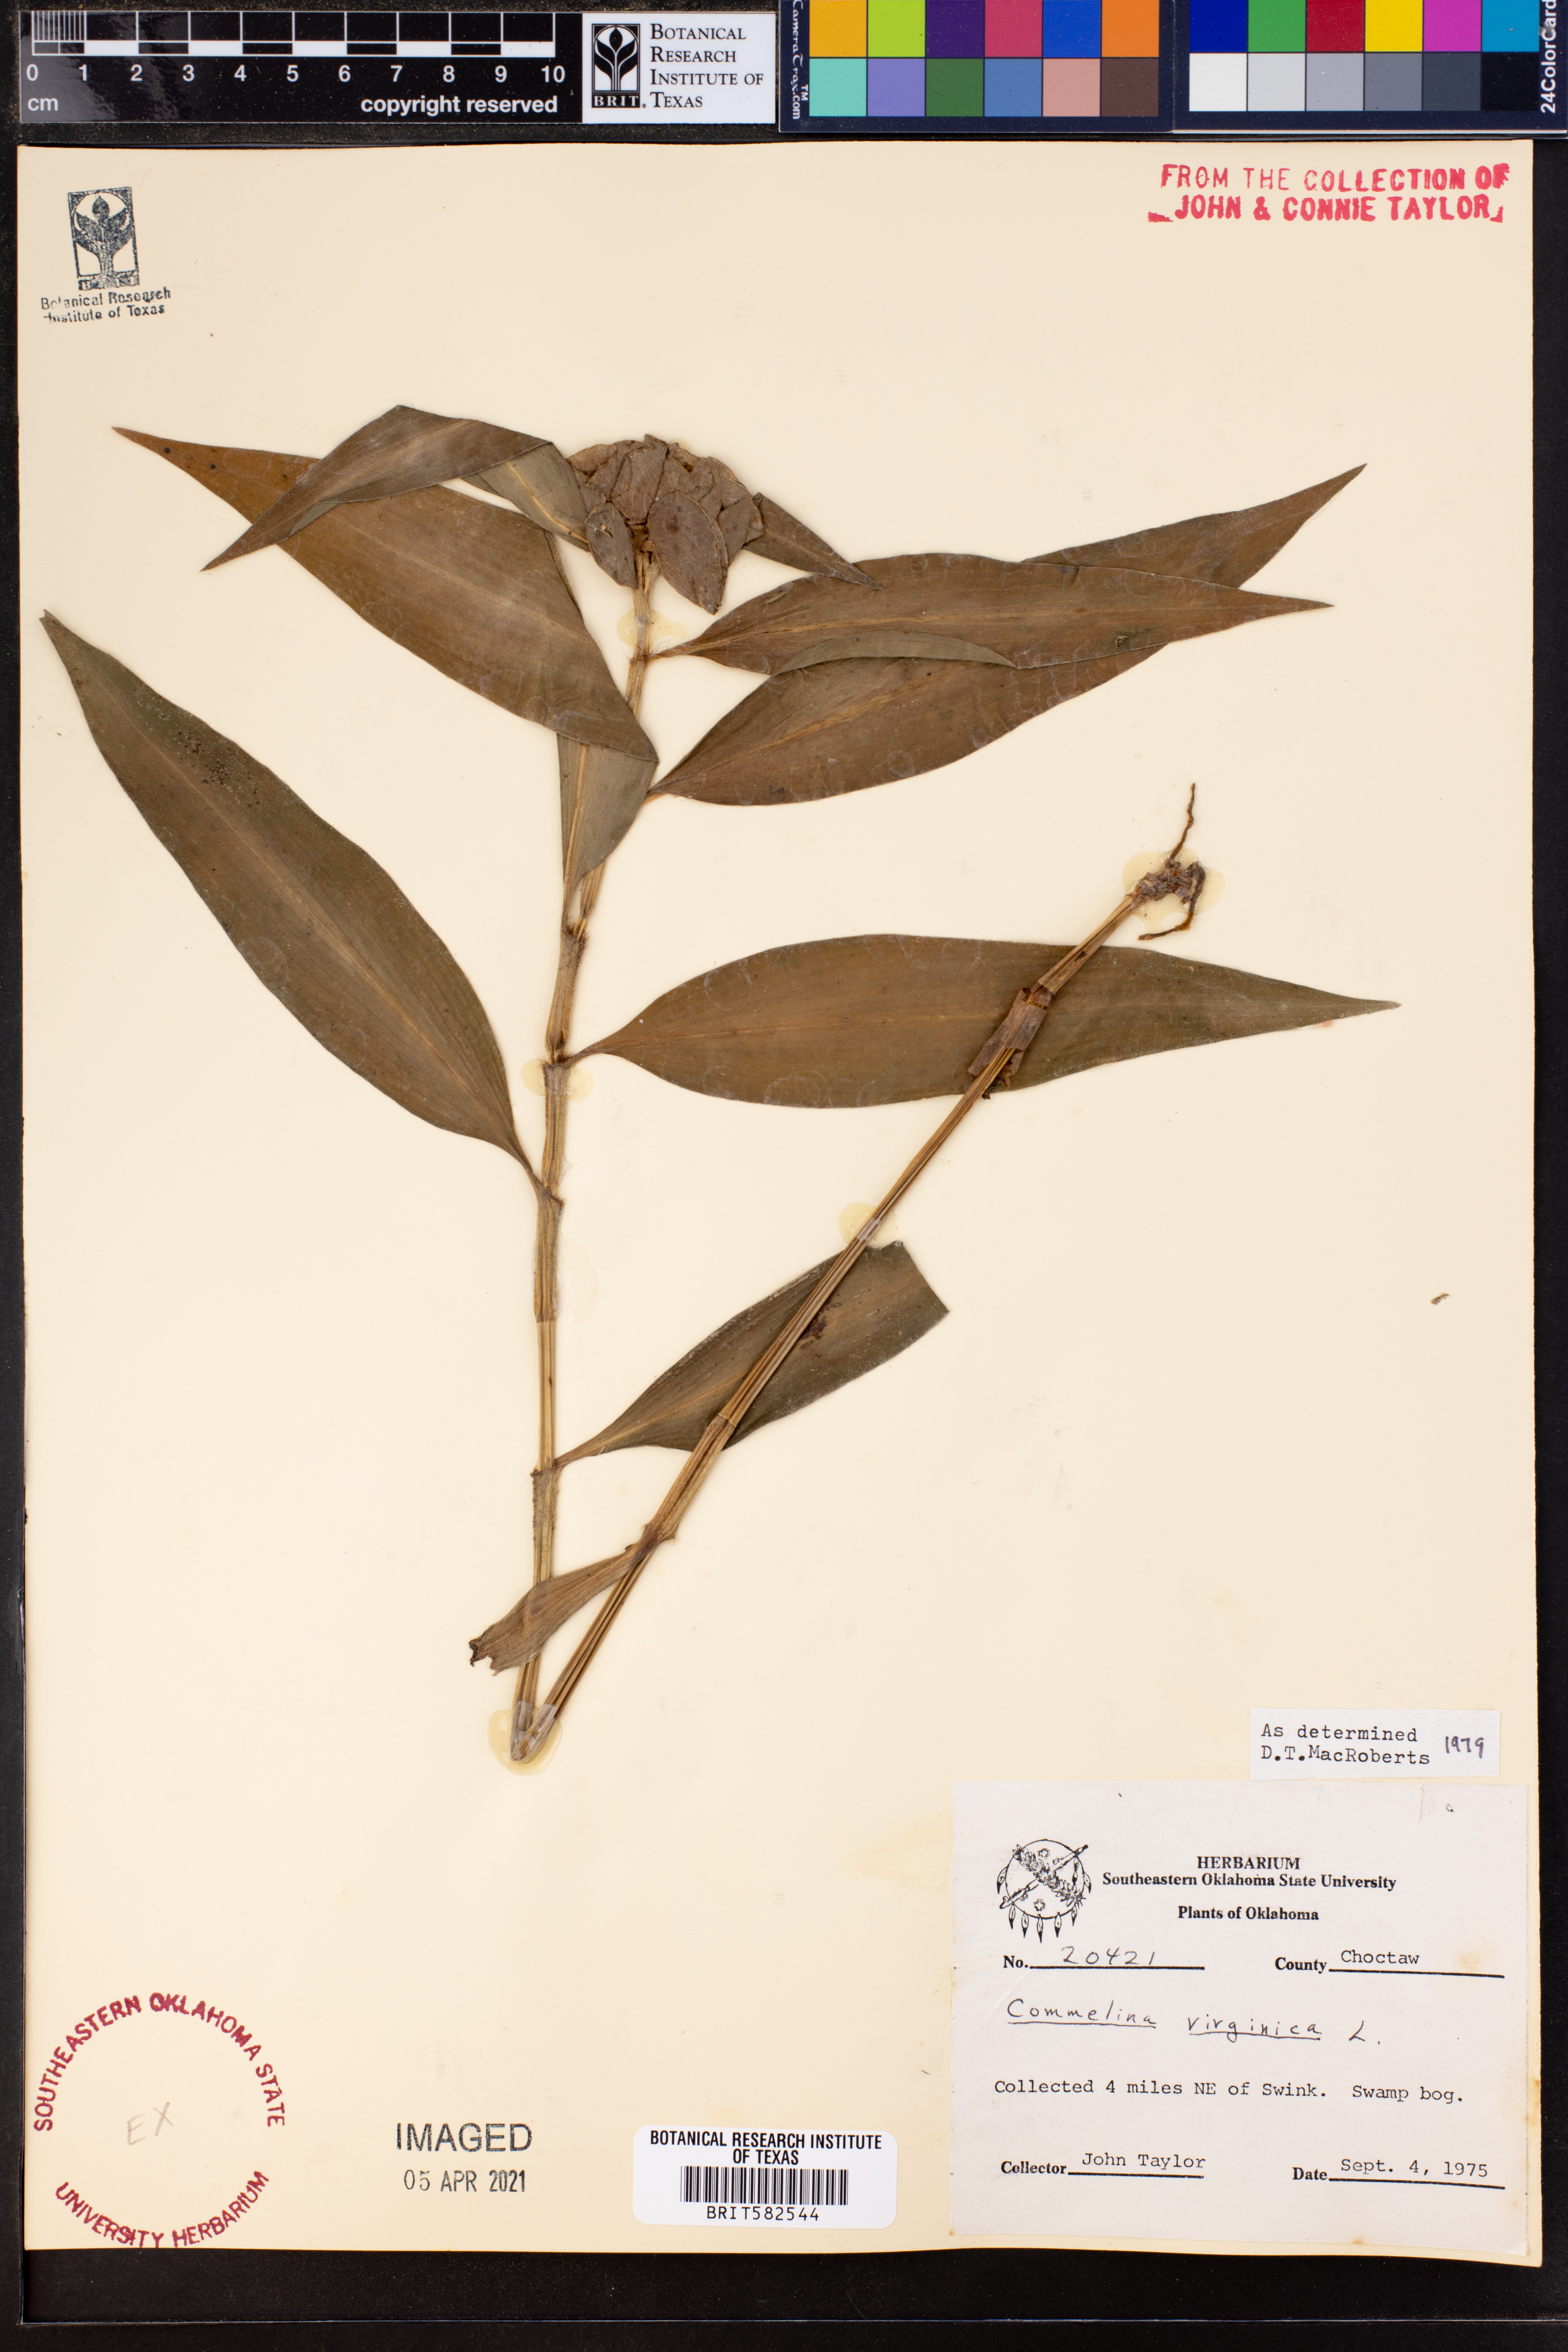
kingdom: Plantae
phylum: Tracheophyta
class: Liliopsida
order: Commelinales
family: Commelinaceae
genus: Commelina
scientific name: Commelina virginica
